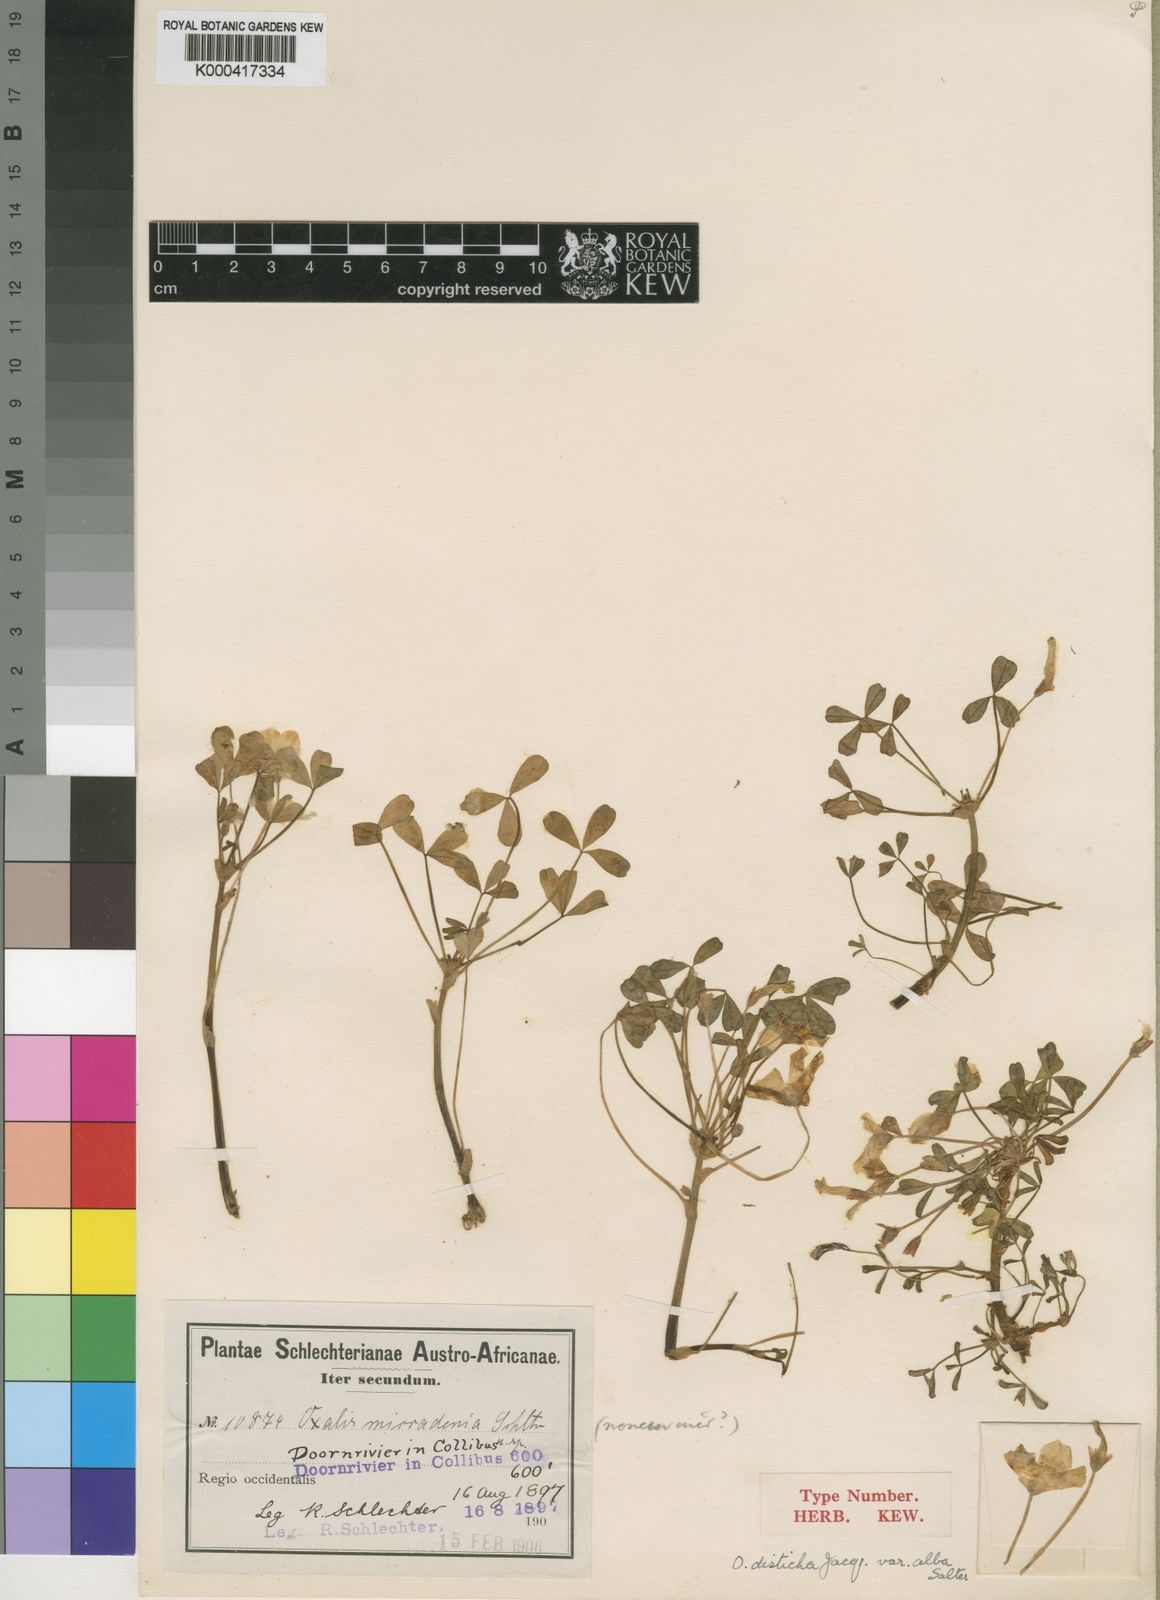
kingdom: Plantae
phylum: Tracheophyta
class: Magnoliopsida
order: Oxalidales
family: Oxalidaceae
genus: Oxalis
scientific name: Oxalis disticha
